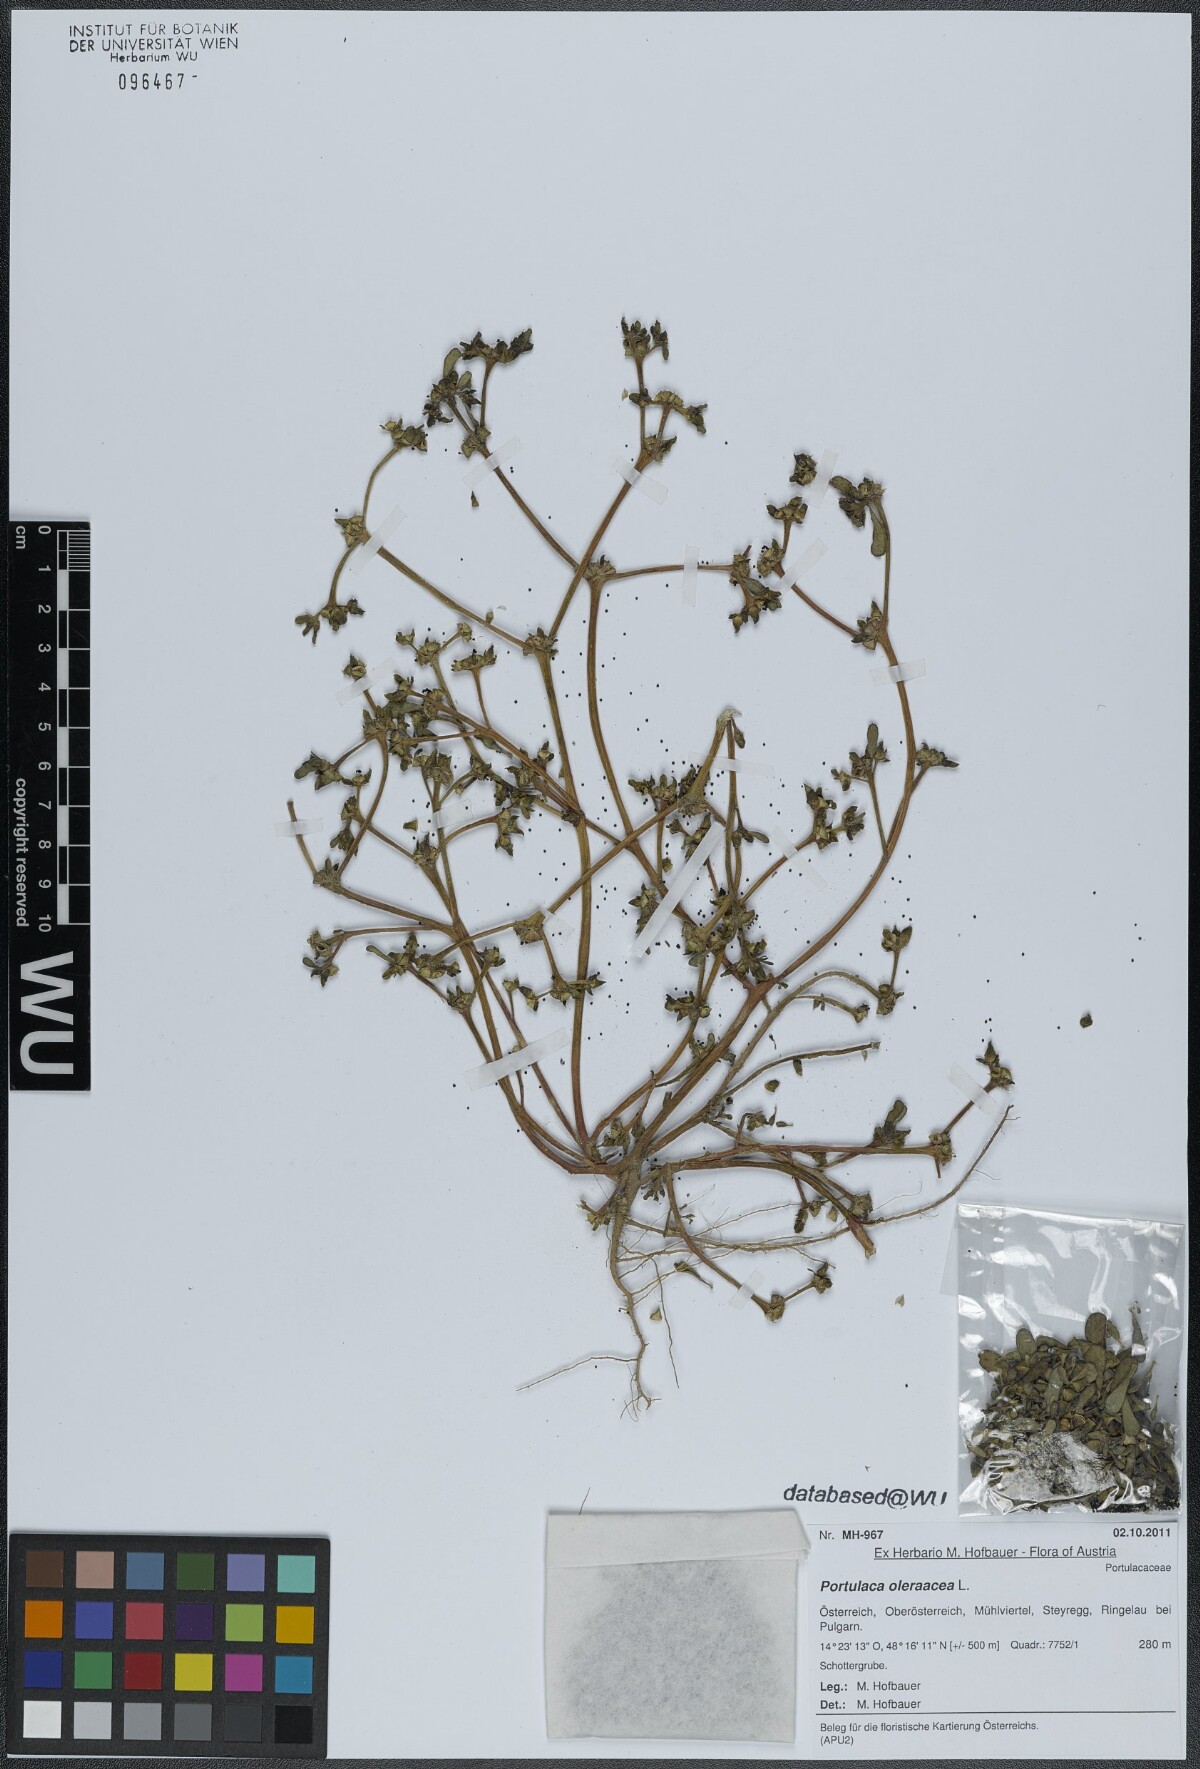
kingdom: Plantae
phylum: Tracheophyta
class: Magnoliopsida
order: Caryophyllales
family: Portulacaceae
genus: Portulaca
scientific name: Portulaca oleracea
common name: Common purslane
